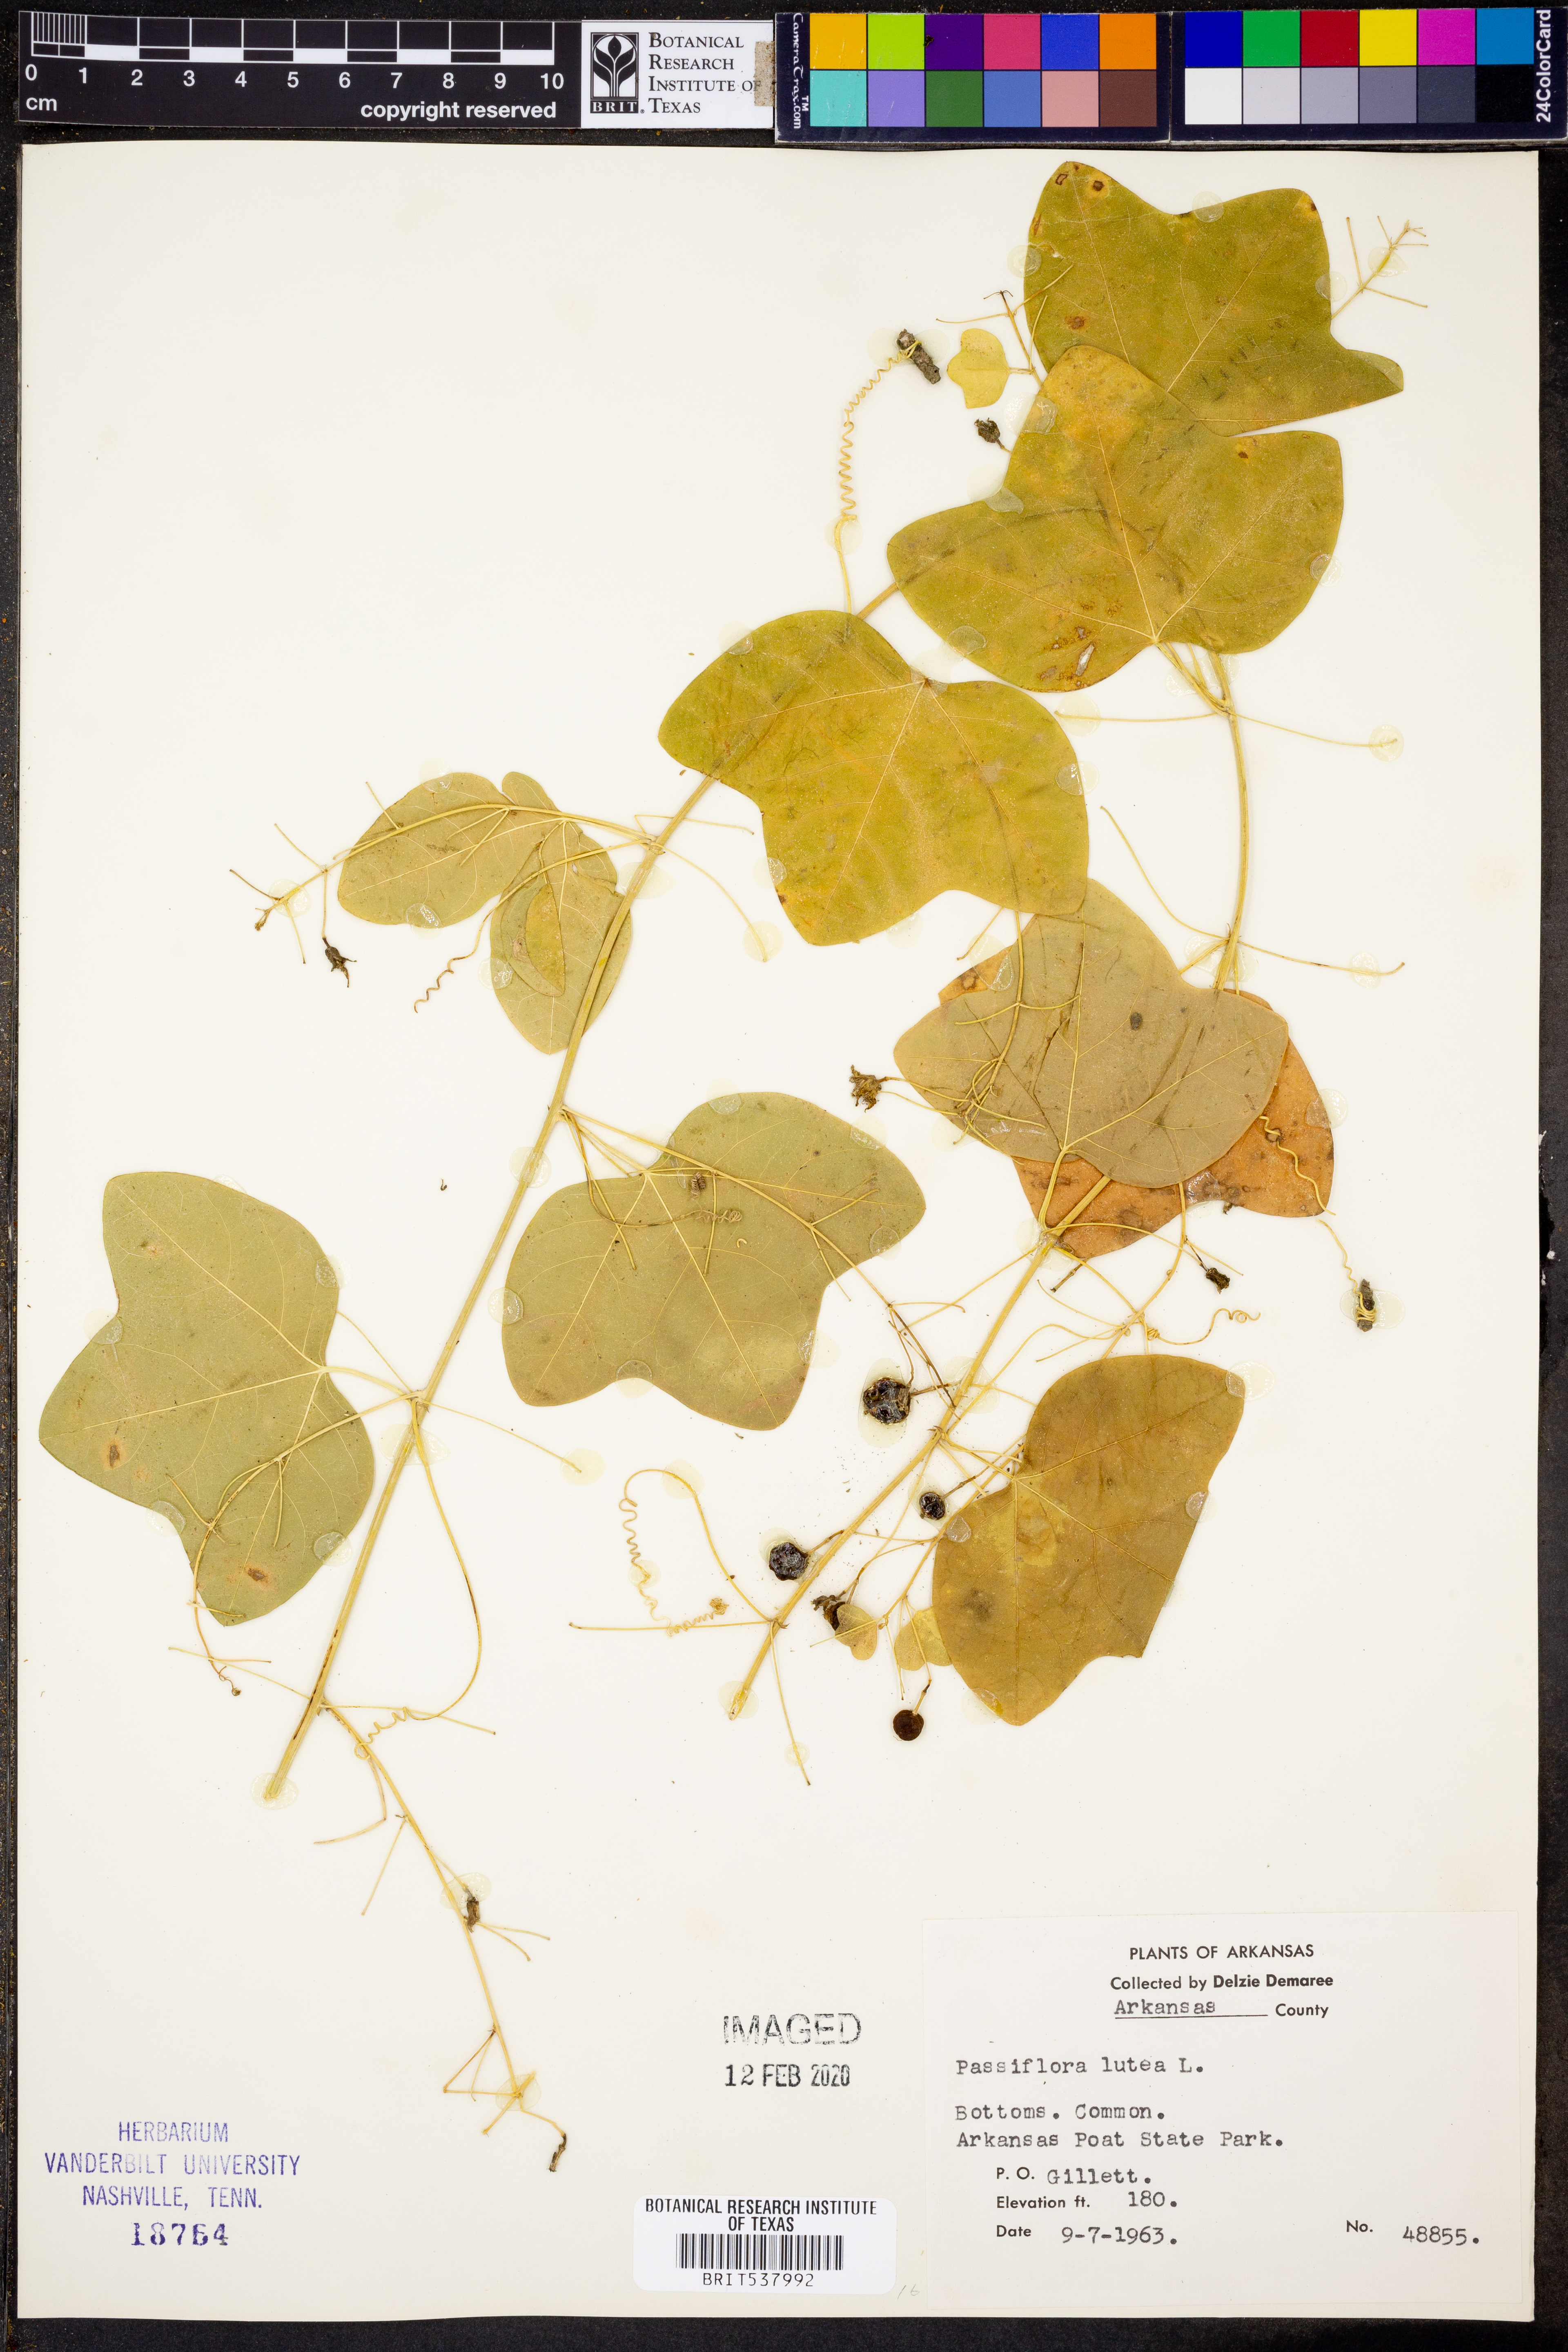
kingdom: Plantae
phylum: Tracheophyta
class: Magnoliopsida
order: Malpighiales
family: Passifloraceae
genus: Passiflora
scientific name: Passiflora lutea
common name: Yellow passionflower
